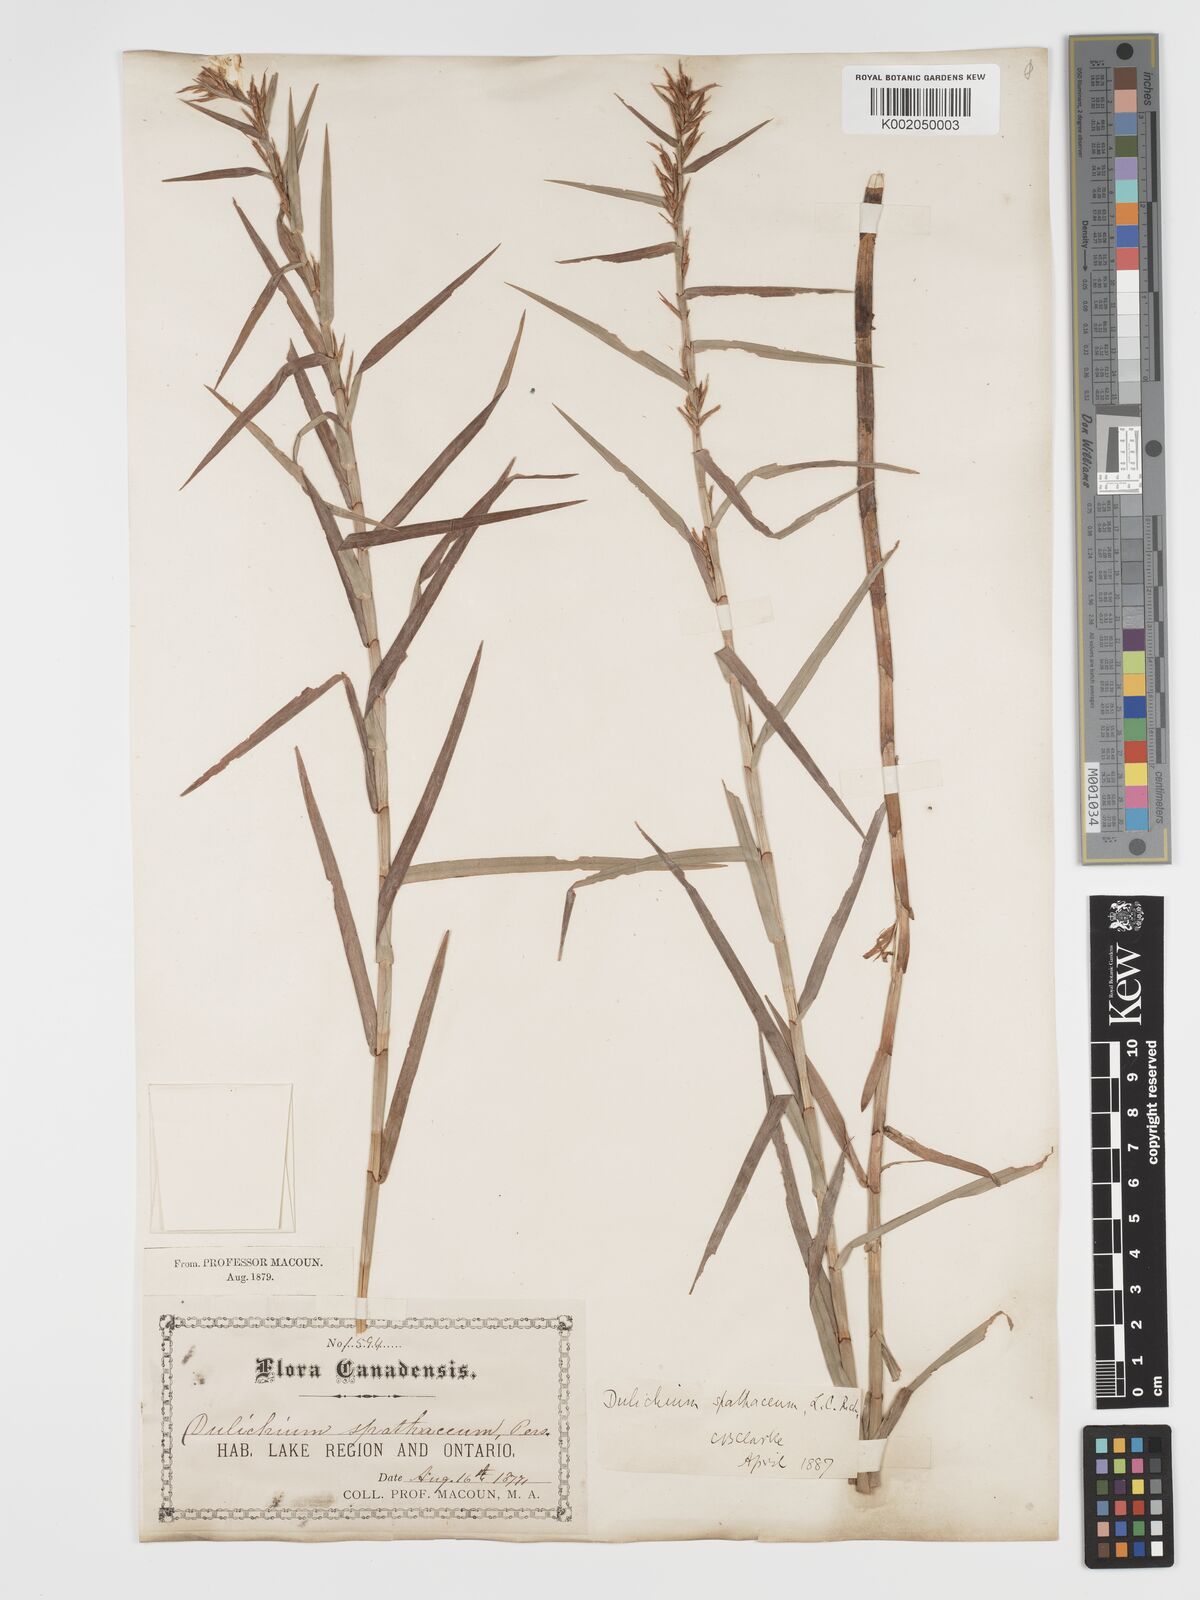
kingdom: Plantae
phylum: Tracheophyta
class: Liliopsida
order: Poales
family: Cyperaceae
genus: Dulichium
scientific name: Dulichium arundinaceum
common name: Three-way sedge
